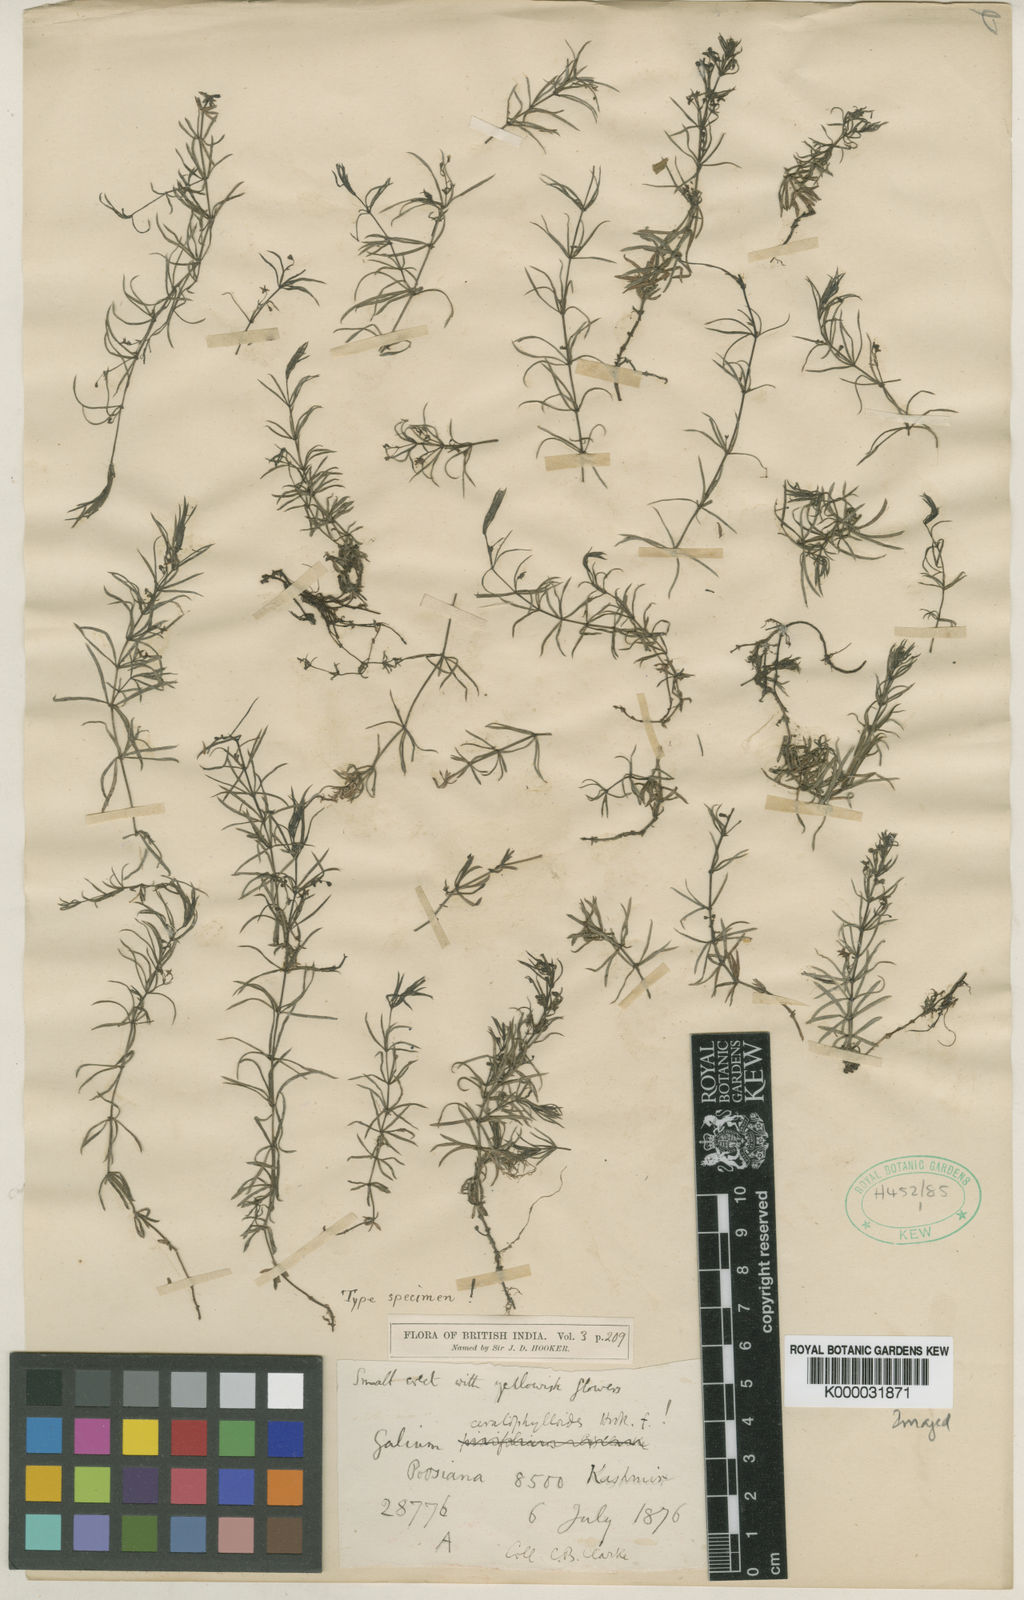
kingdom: Plantae
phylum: Tracheophyta
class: Magnoliopsida
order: Gentianales
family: Rubiaceae
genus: Galium
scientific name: Galium ceratophylloides
